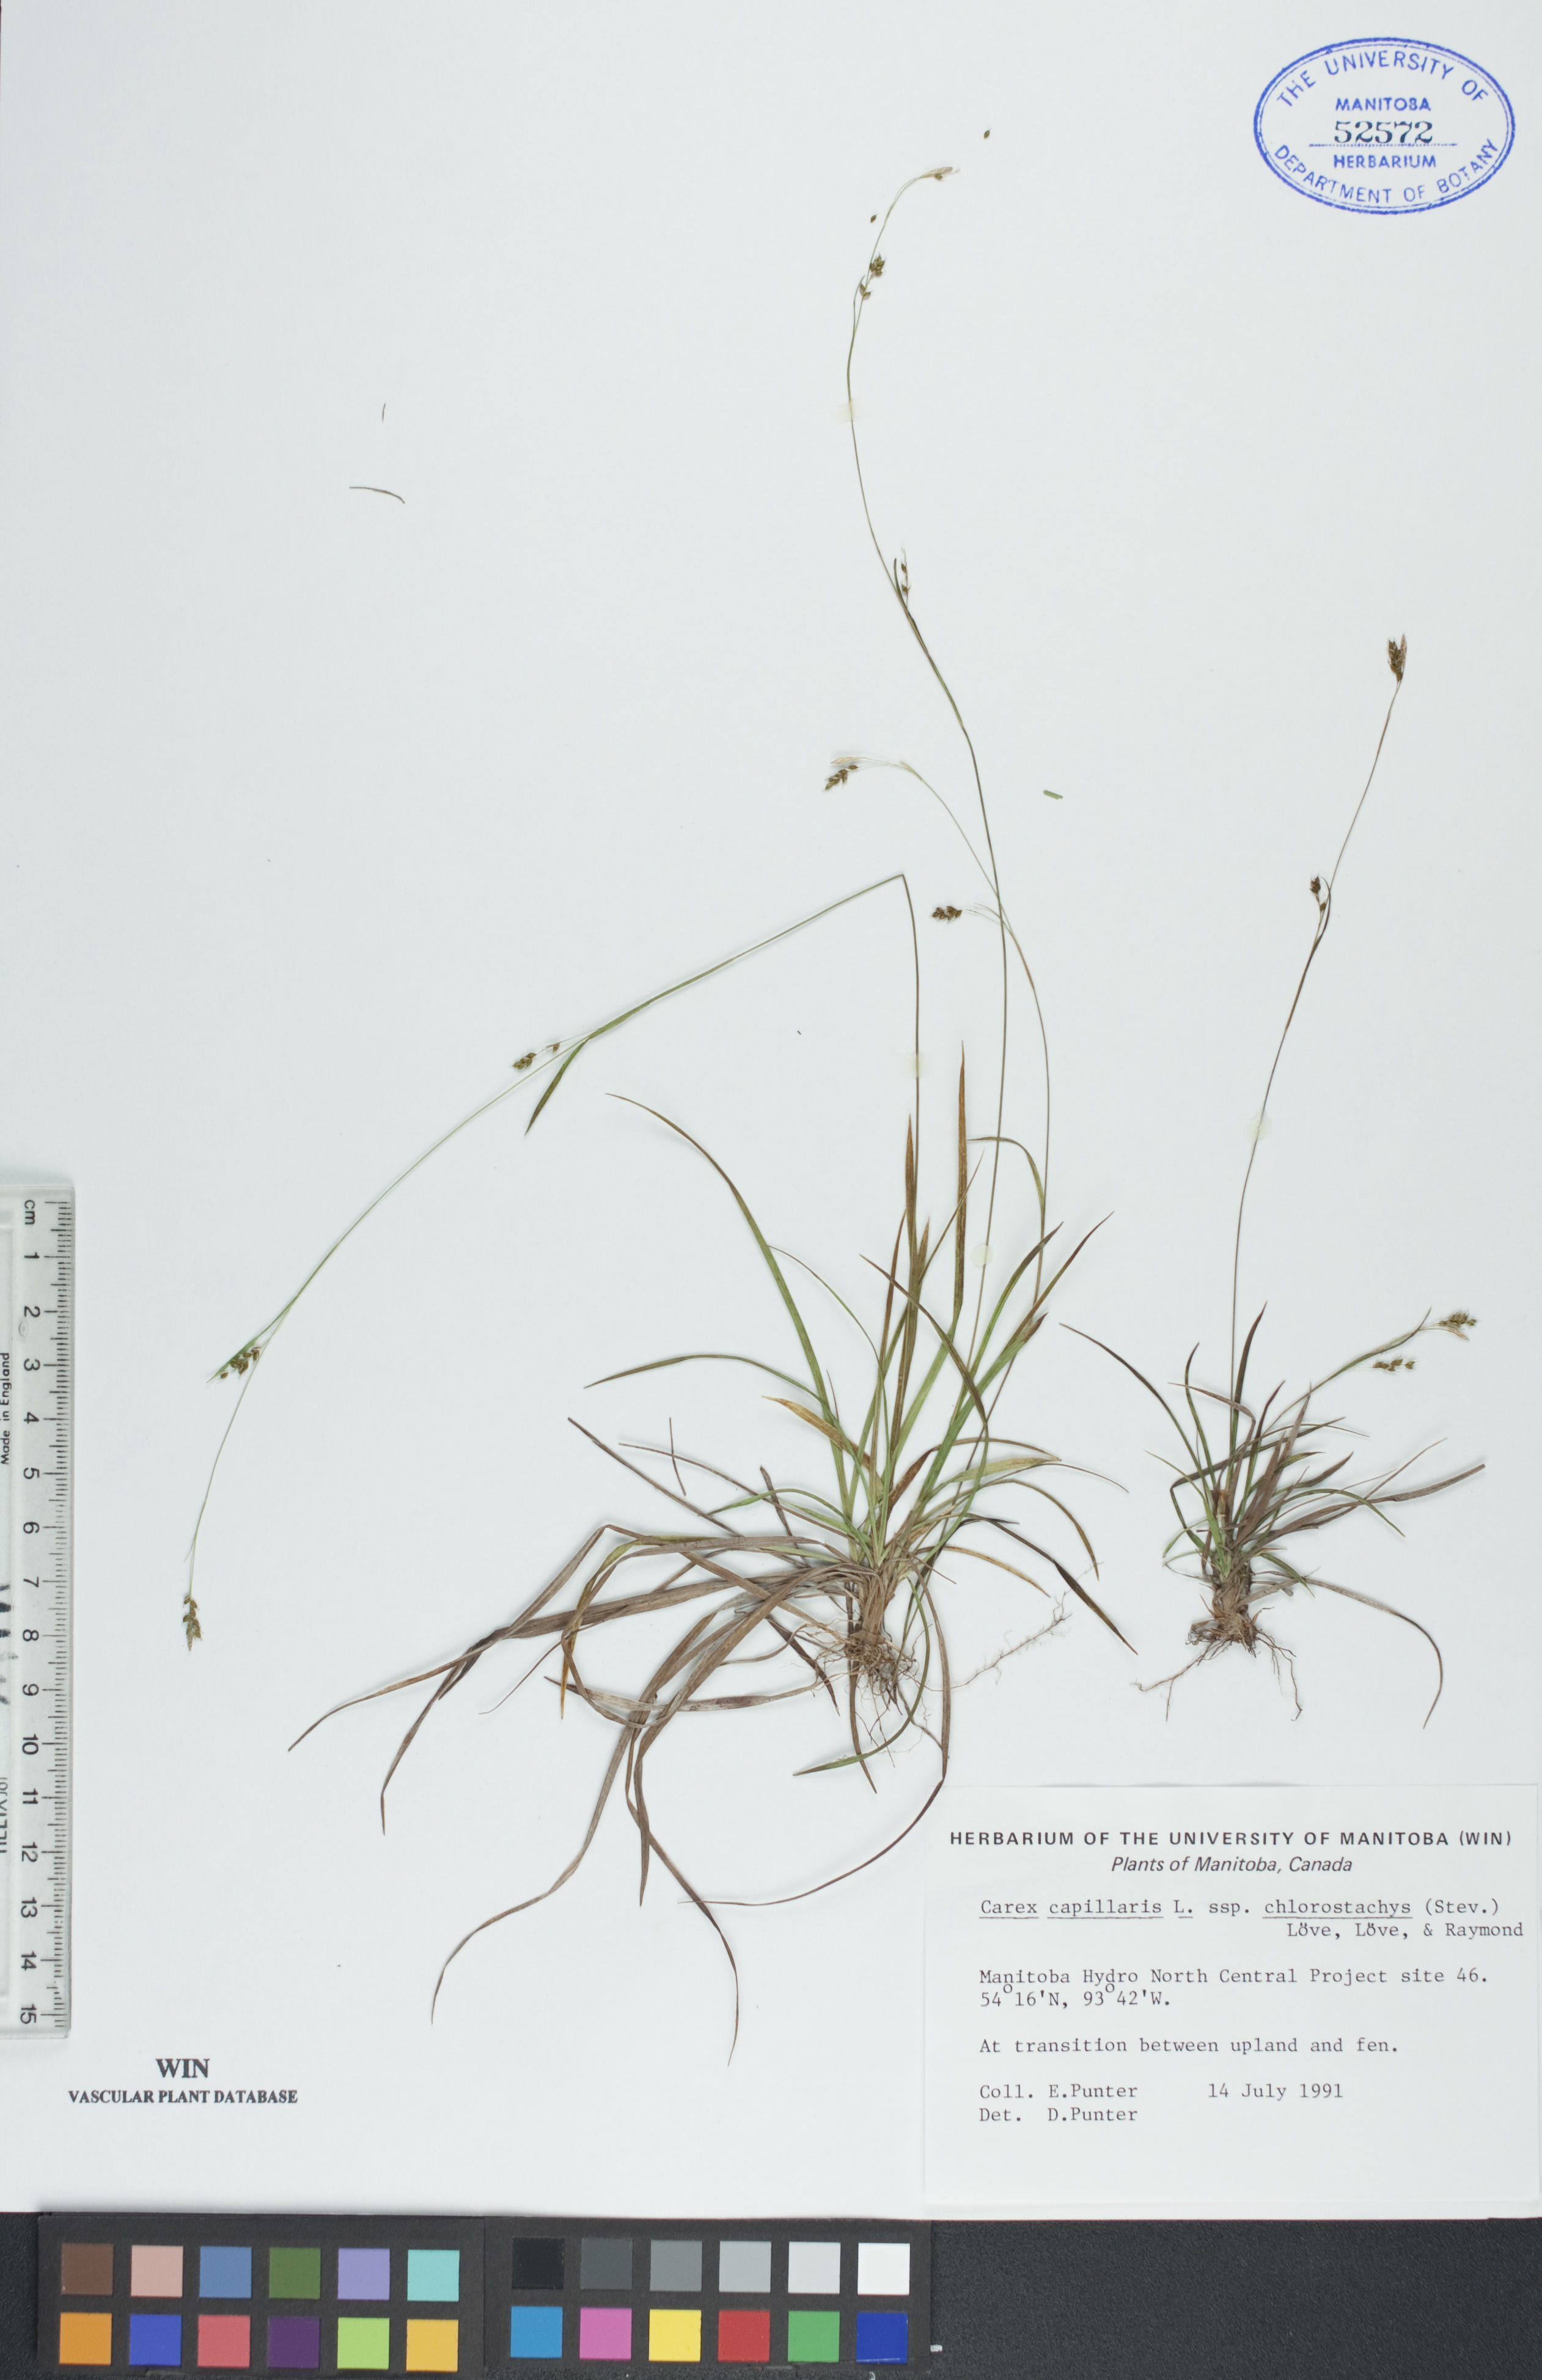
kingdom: Plantae
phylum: Tracheophyta
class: Liliopsida
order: Poales
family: Cyperaceae
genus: Carex
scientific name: Carex chlorostachys
